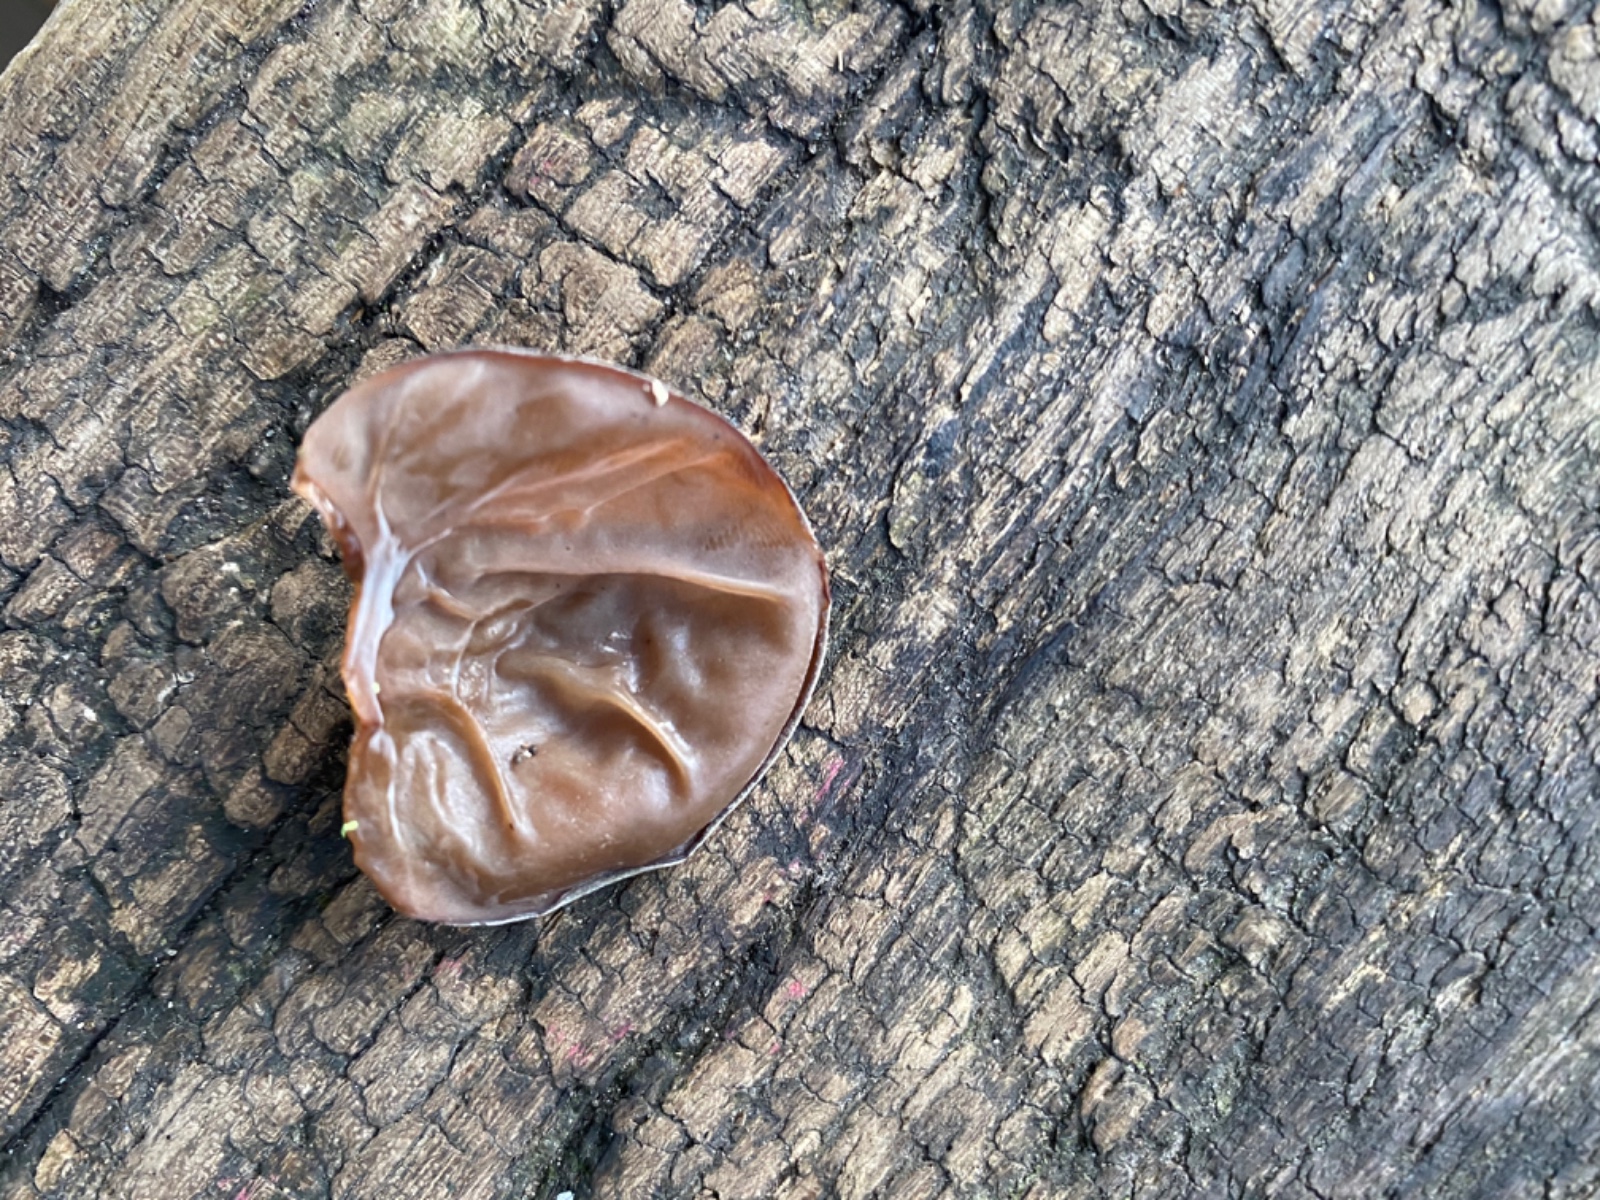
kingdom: Fungi
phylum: Basidiomycota
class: Agaricomycetes
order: Auriculariales
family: Auriculariaceae
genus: Auricularia
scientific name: Auricularia auricula-judae
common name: almindelig judasøre
